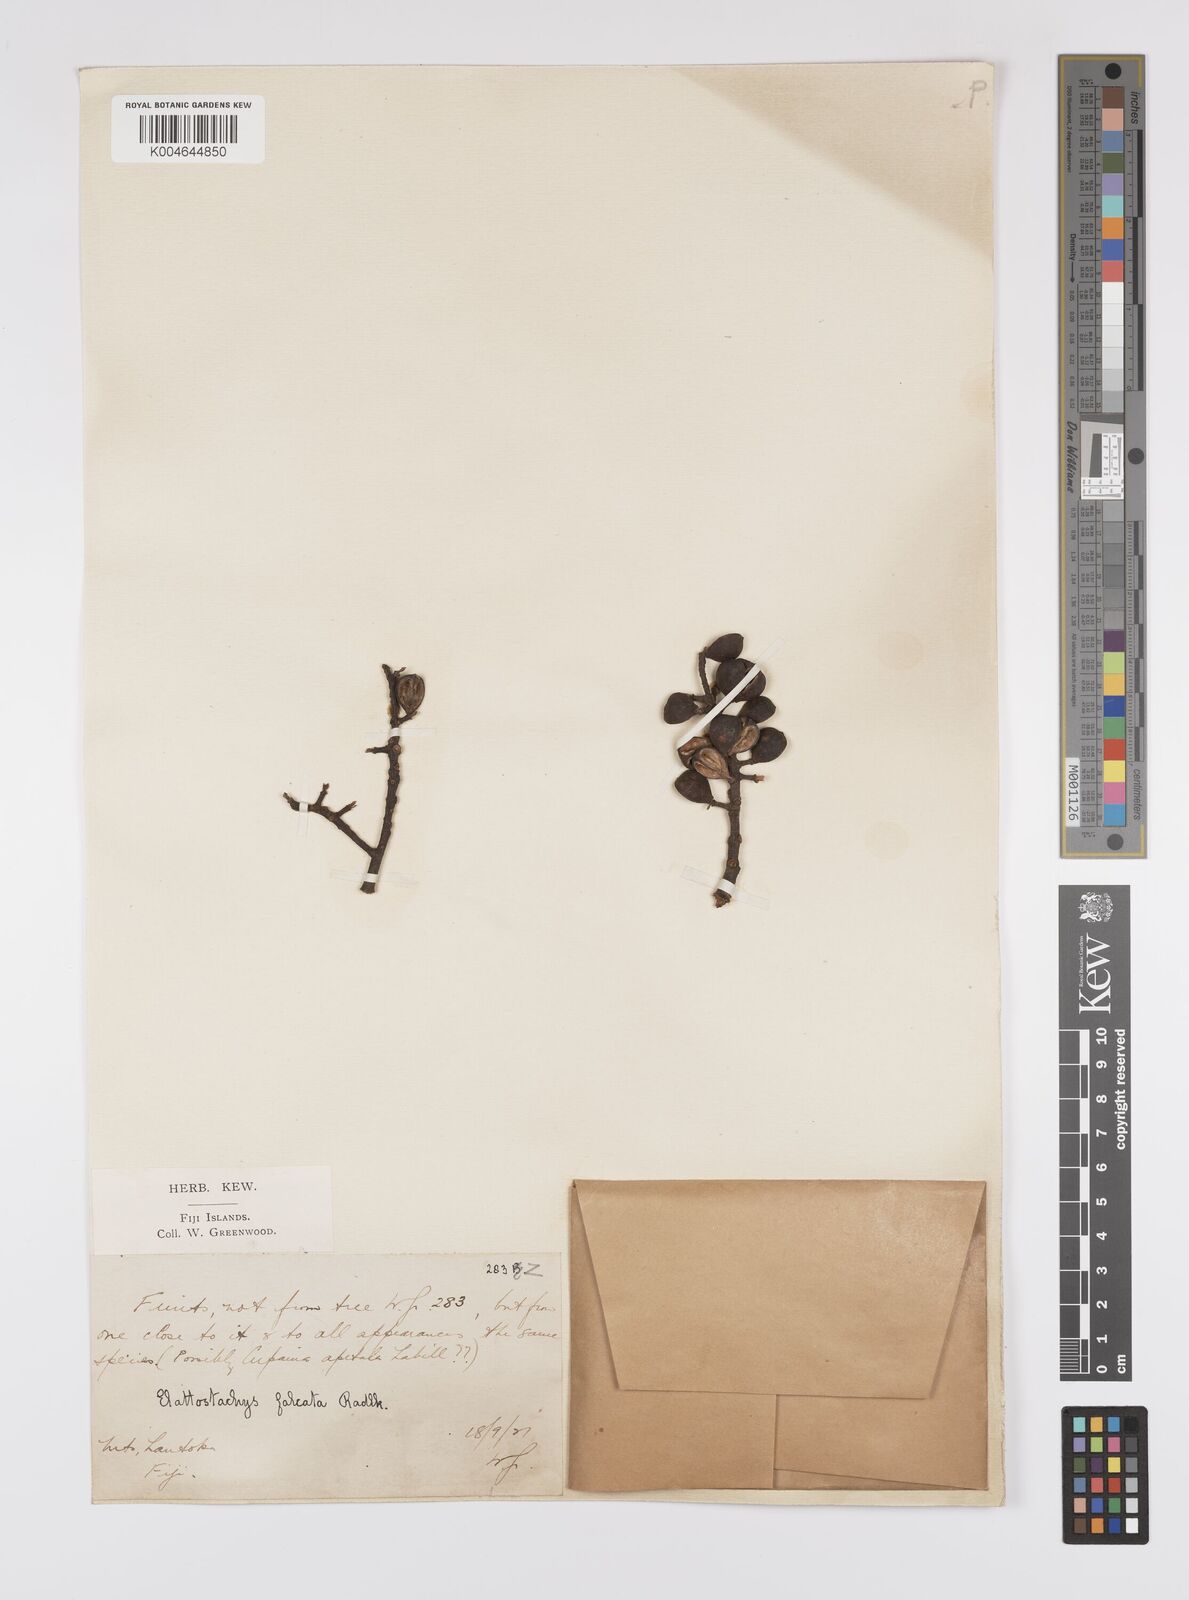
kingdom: Plantae
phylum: Tracheophyta
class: Magnoliopsida
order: Sapindales
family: Sapindaceae
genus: Elattostachys
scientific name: Elattostachys apetala
